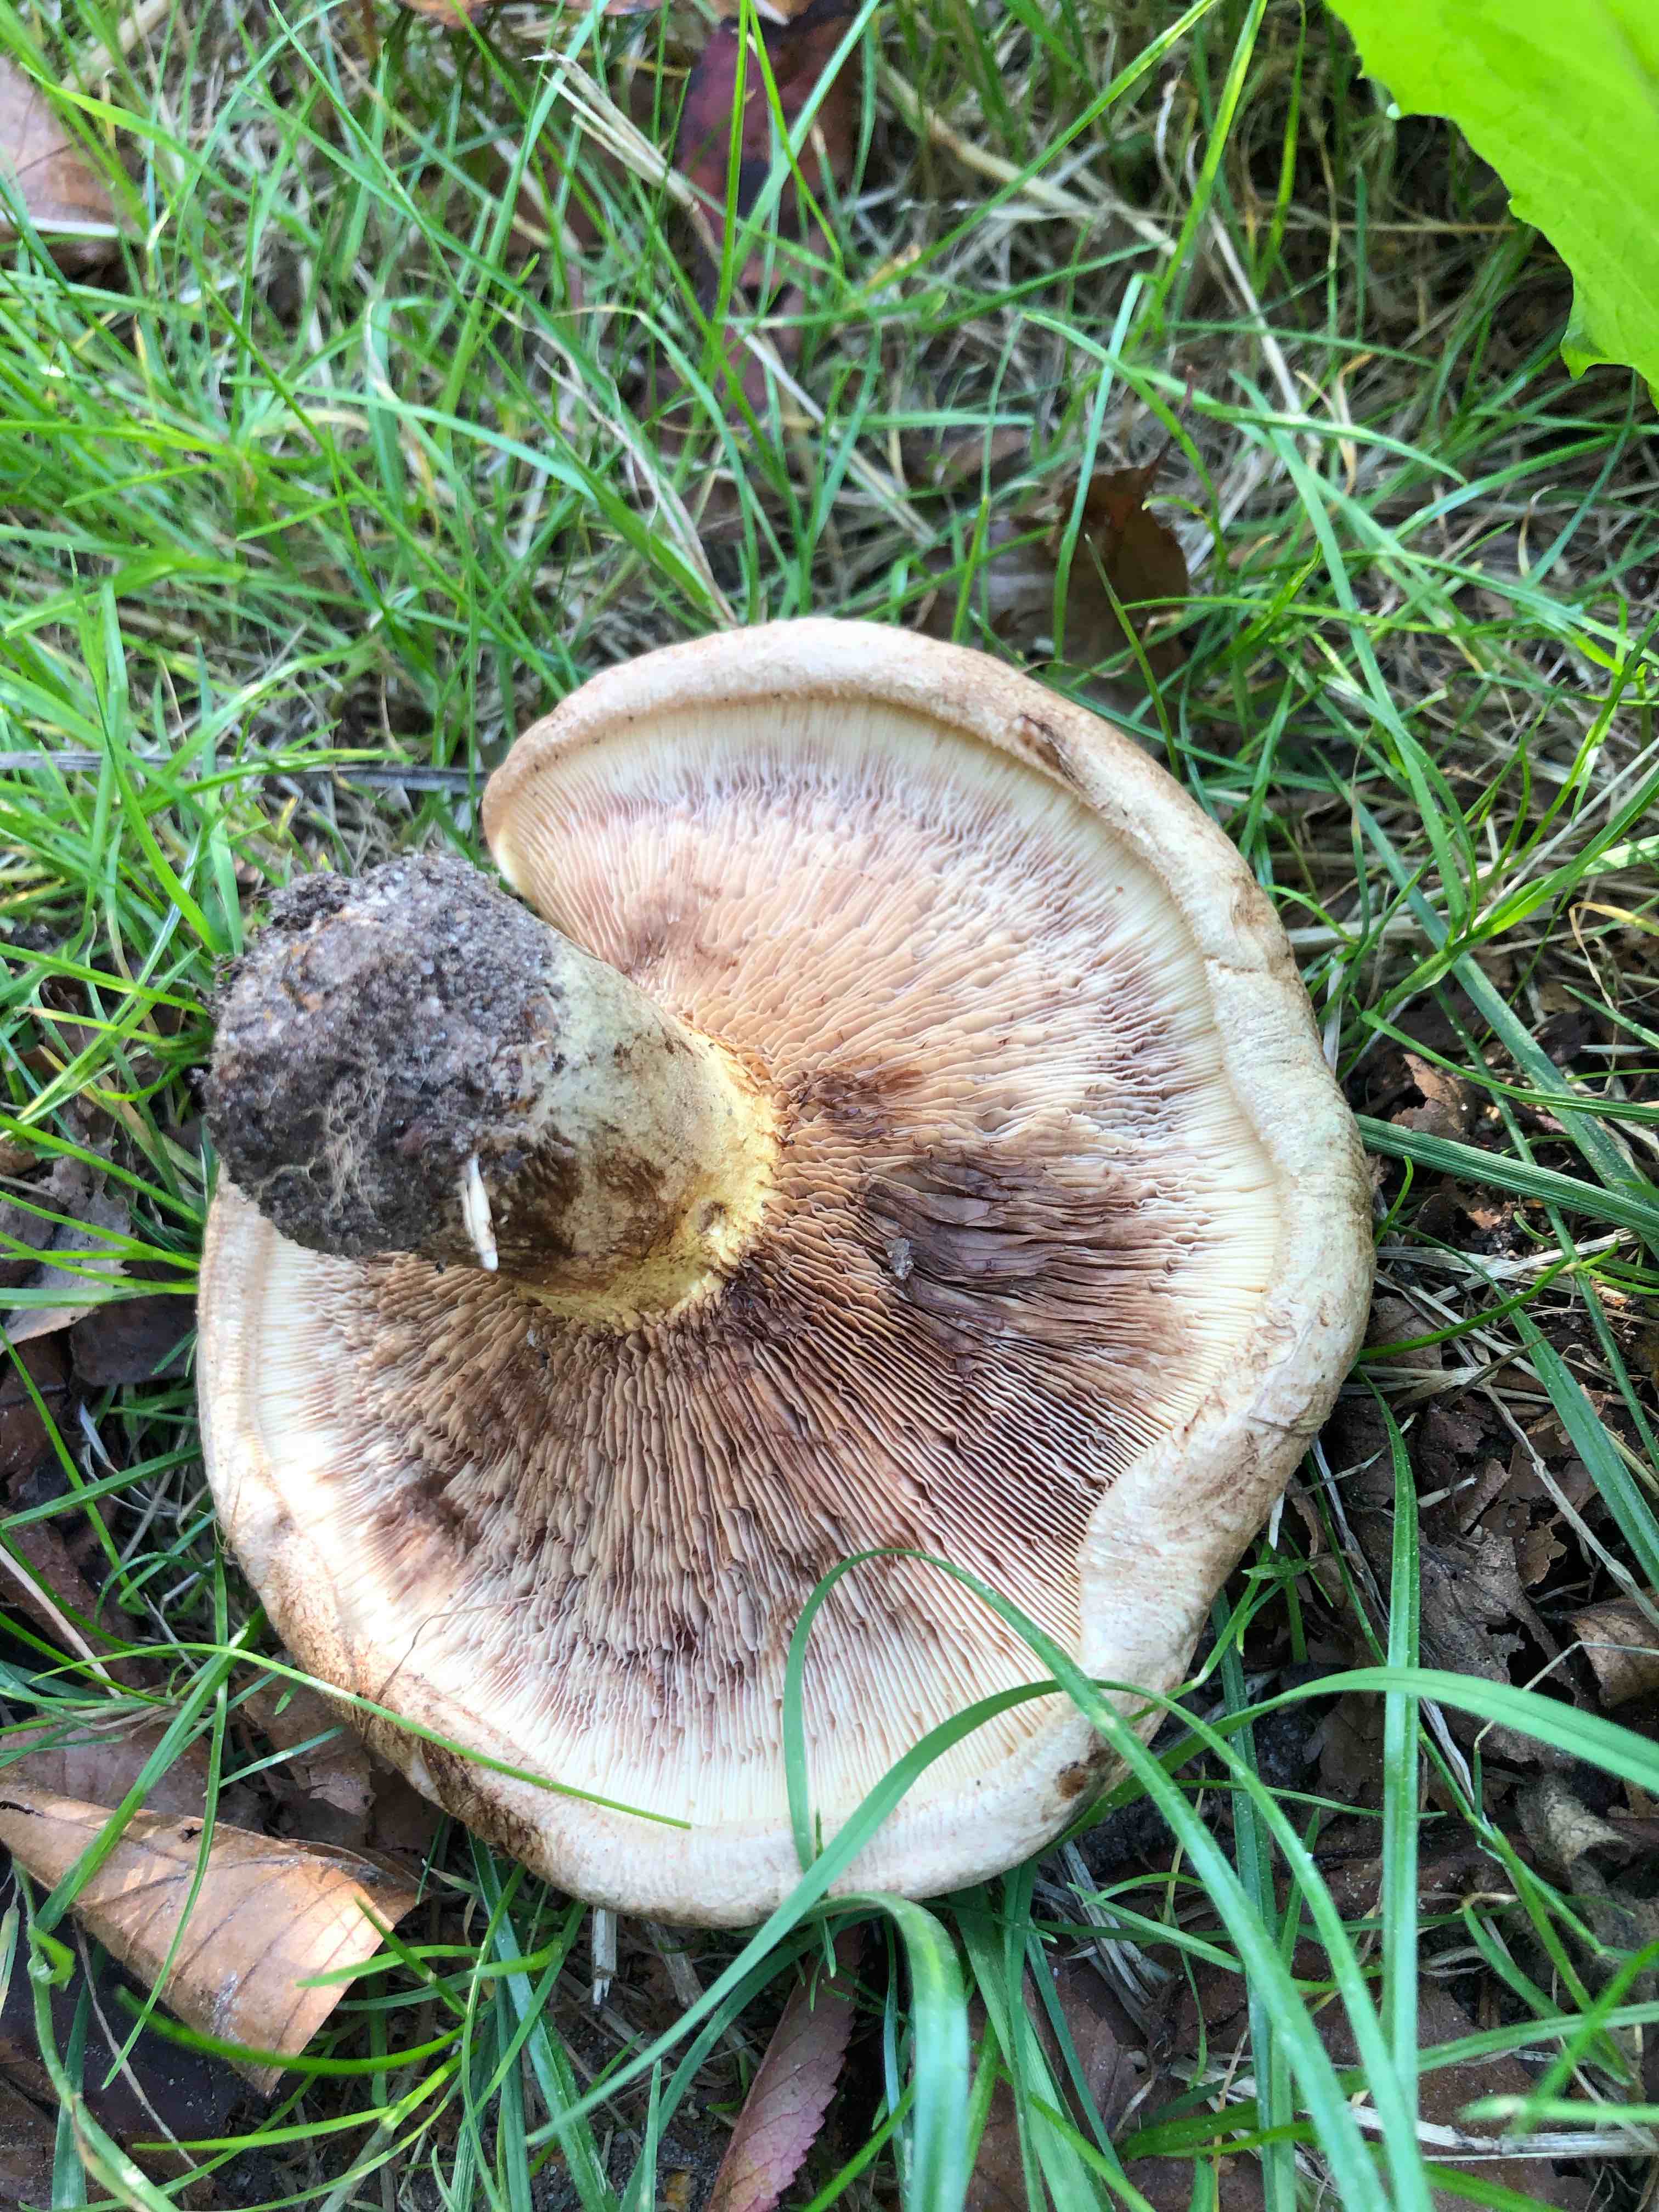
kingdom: Fungi
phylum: Basidiomycota
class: Agaricomycetes
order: Boletales
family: Paxillaceae
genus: Paxillus
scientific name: Paxillus involutus
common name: almindelig netbladhat
